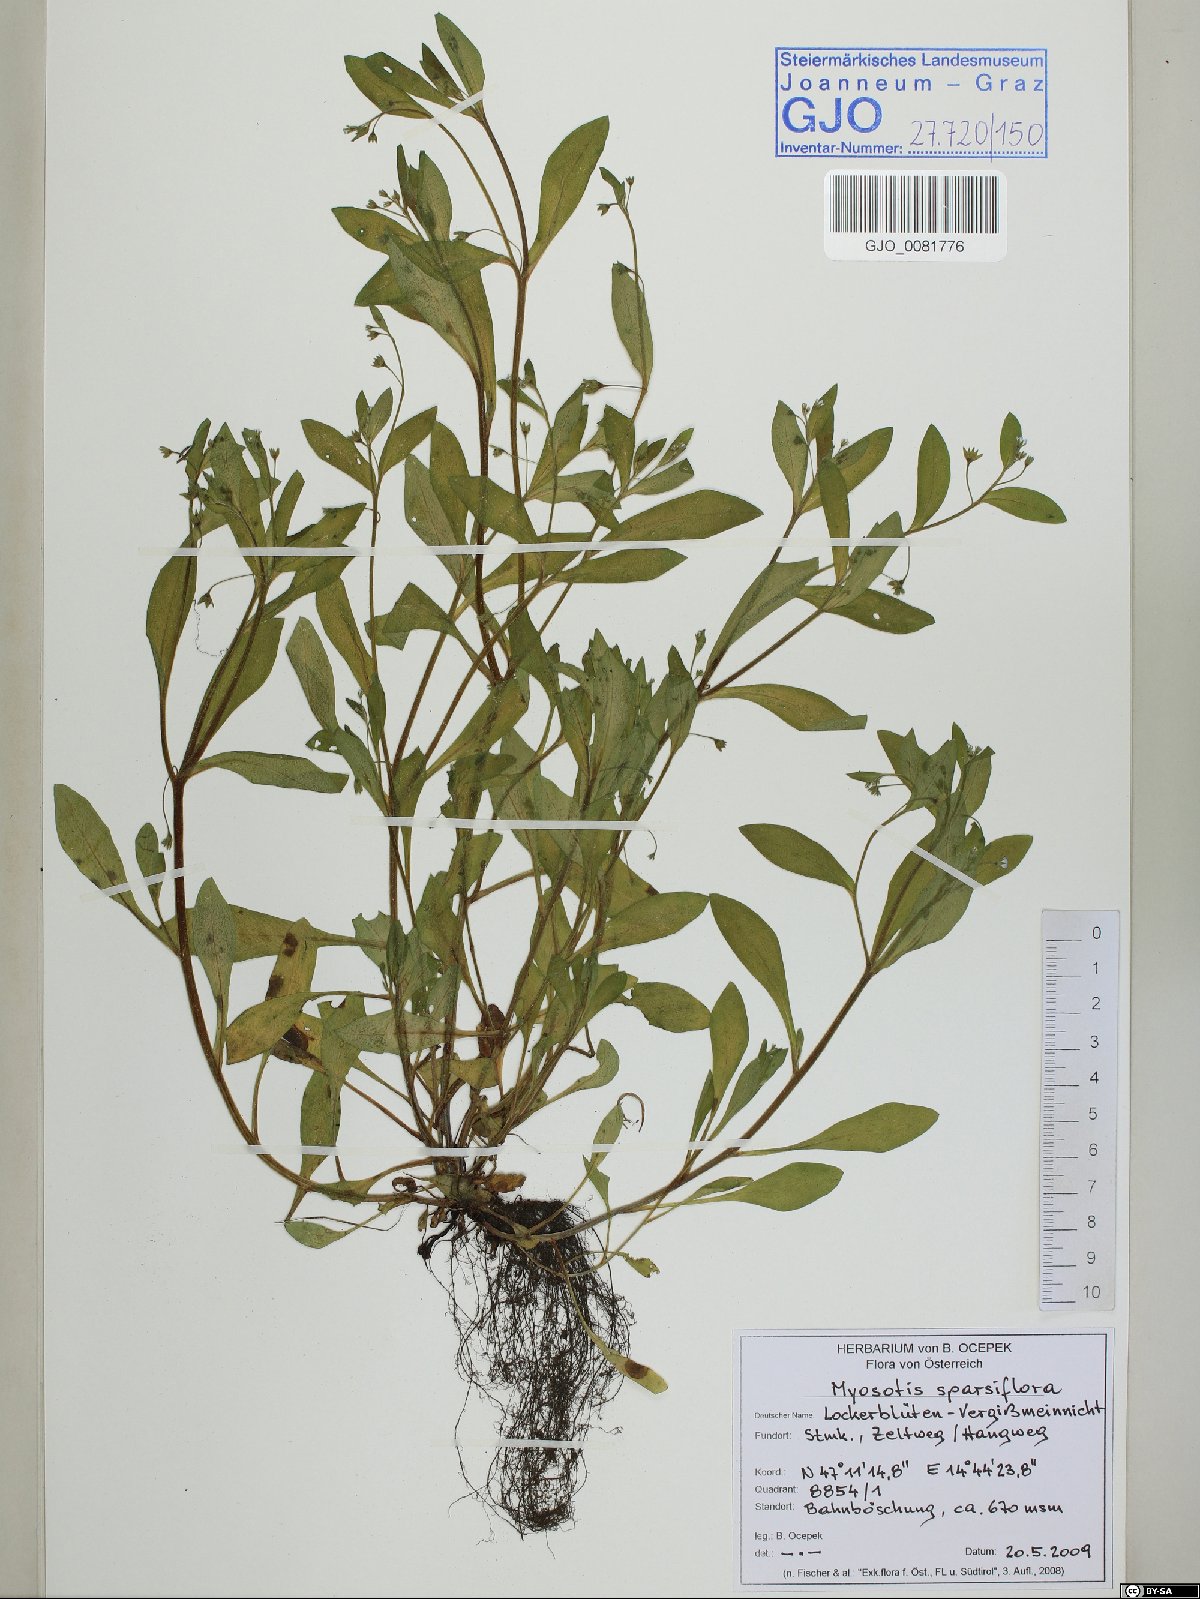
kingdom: Plantae
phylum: Tracheophyta
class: Magnoliopsida
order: Boraginales
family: Boraginaceae
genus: Myosotis
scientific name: Myosotis sparsiflora
